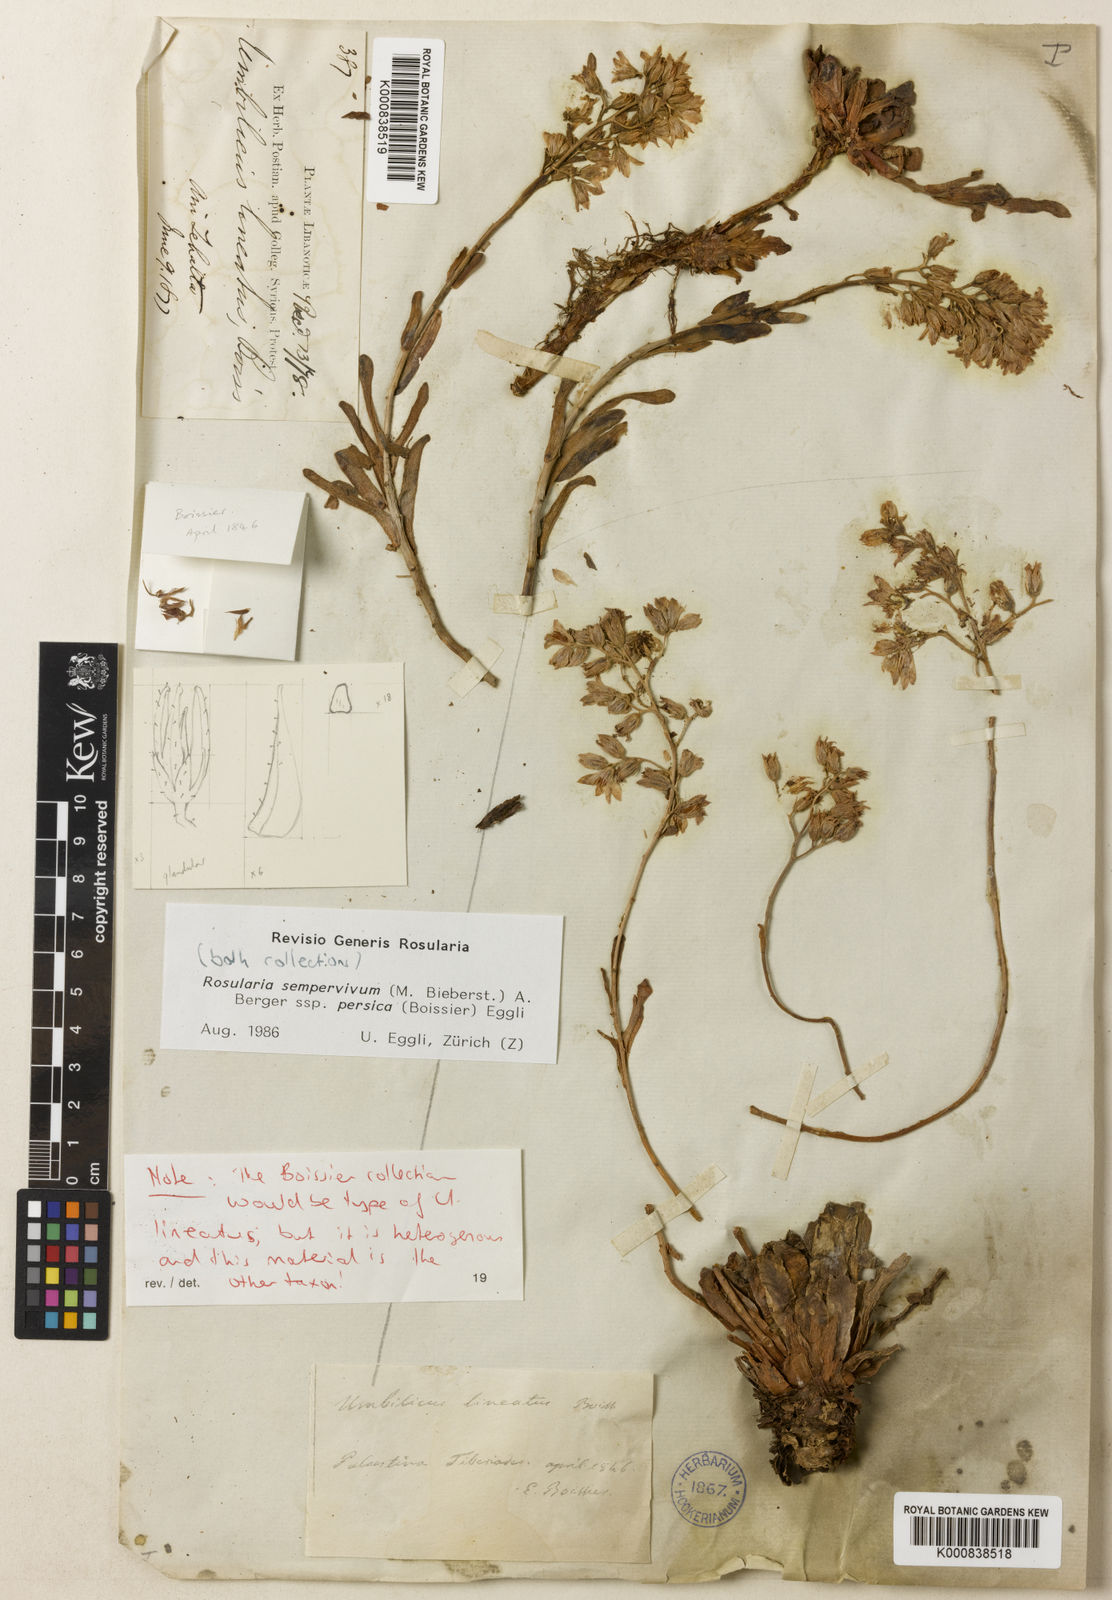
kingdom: Plantae
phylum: Tracheophyta
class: Magnoliopsida
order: Saxifragales
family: Crassulaceae
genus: Rosularia
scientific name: Rosularia sempervivum
